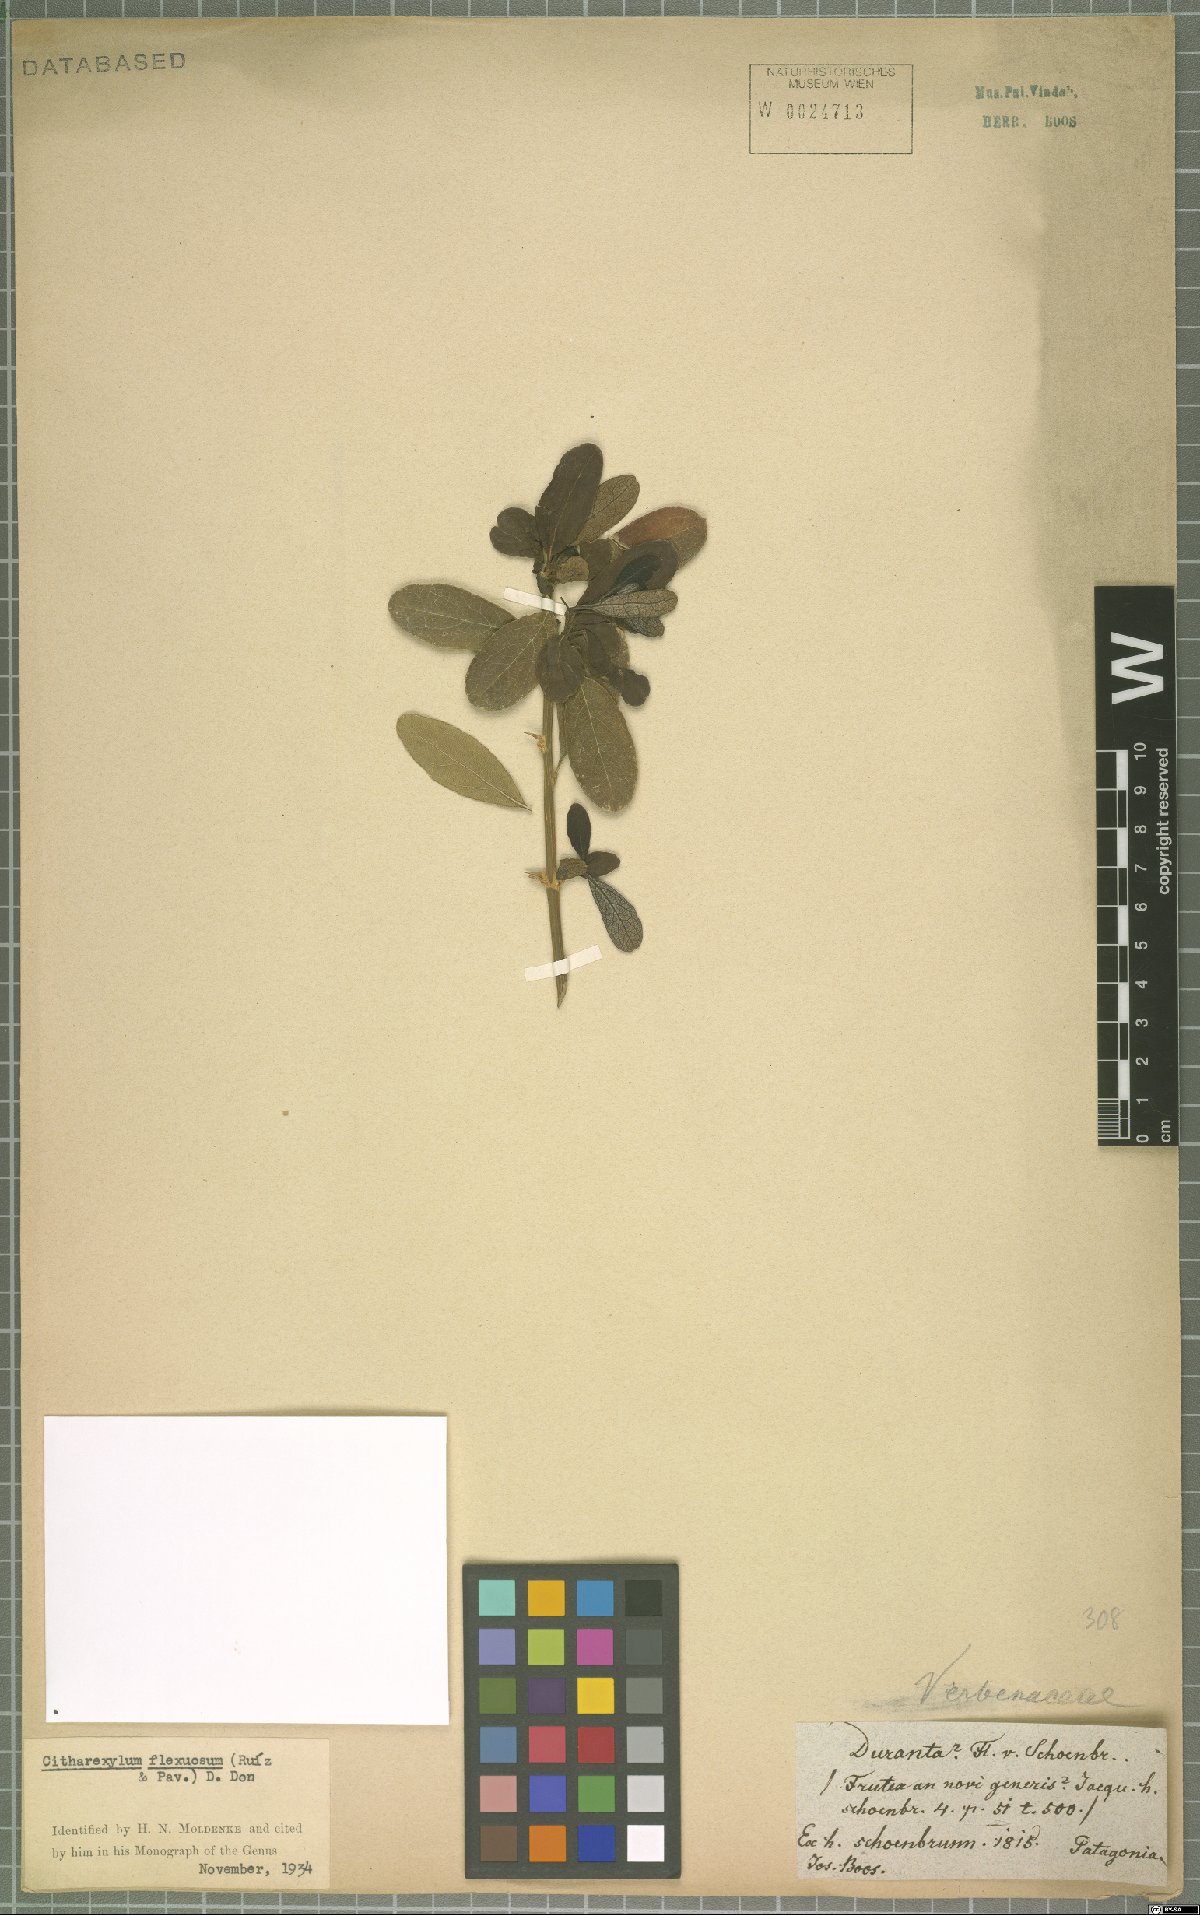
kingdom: Plantae
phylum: Tracheophyta
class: Magnoliopsida
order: Lamiales
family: Verbenaceae
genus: Citharexylum
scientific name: Citharexylum flexuosum
